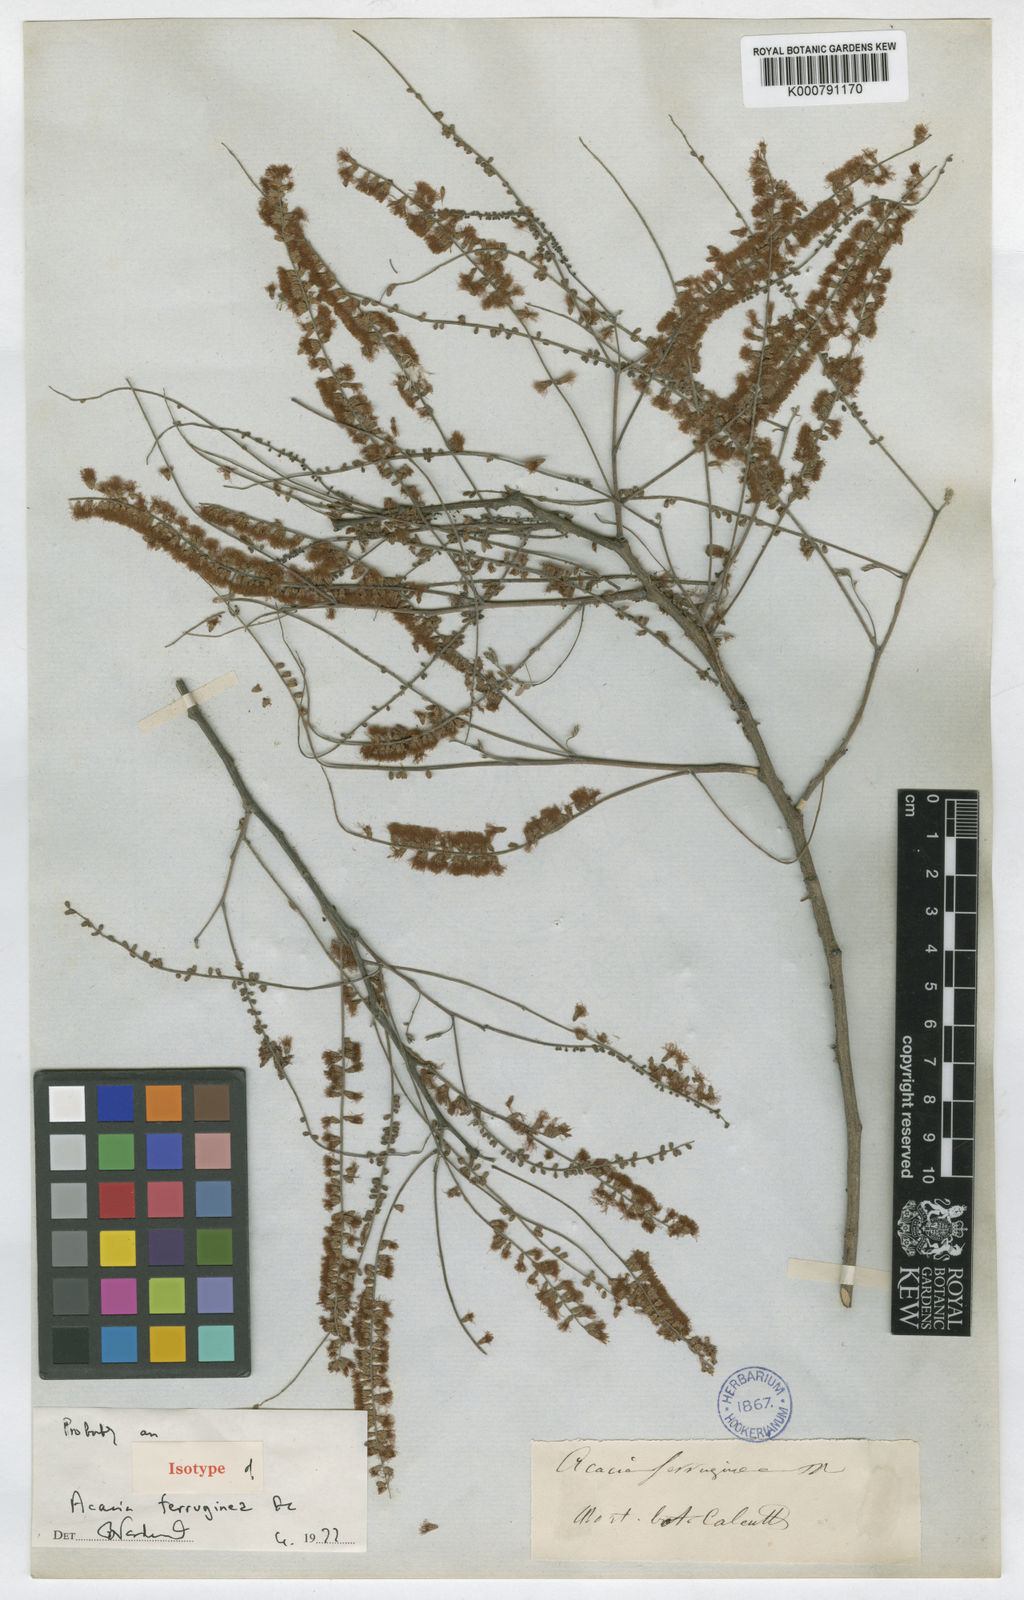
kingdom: Plantae
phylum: Tracheophyta
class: Magnoliopsida
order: Fabales
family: Fabaceae
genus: Senegalia
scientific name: Senegalia ferruginea
